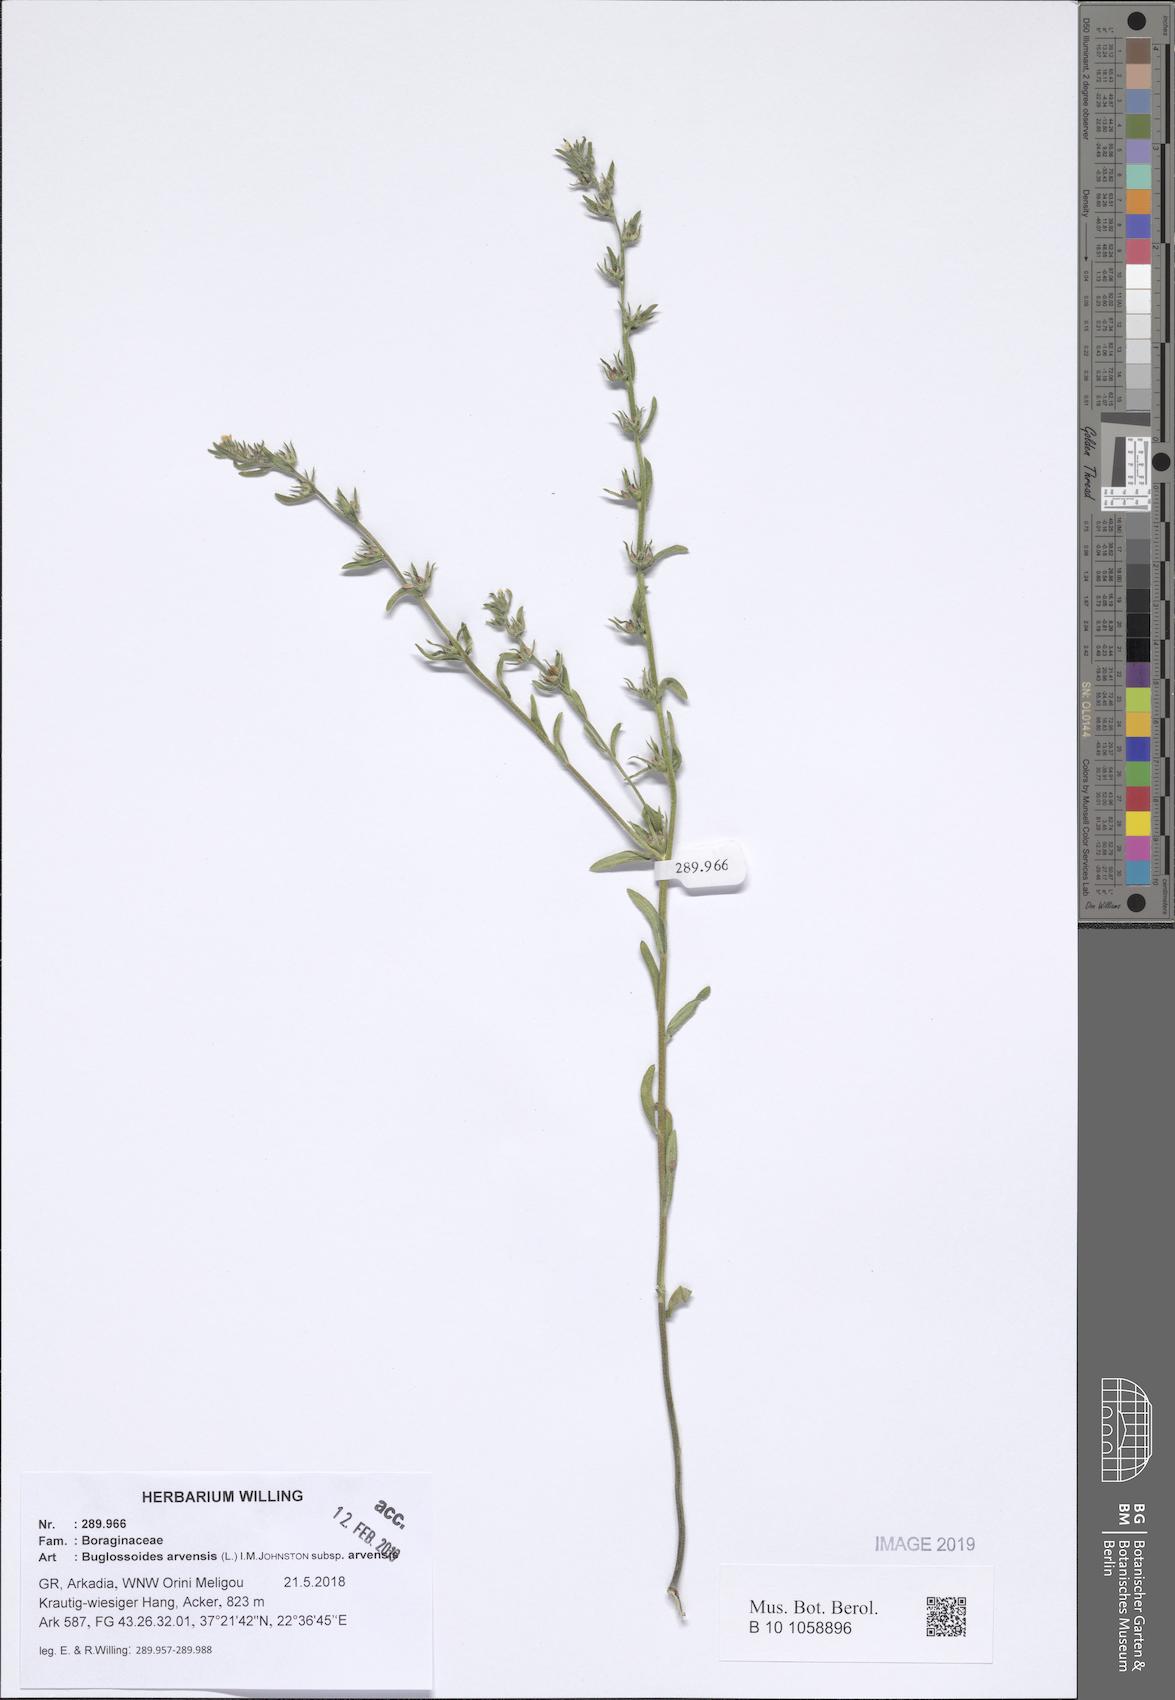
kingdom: Plantae
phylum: Tracheophyta
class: Magnoliopsida
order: Boraginales
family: Boraginaceae
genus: Buglossoides
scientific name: Buglossoides arvensis
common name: Corn gromwell
